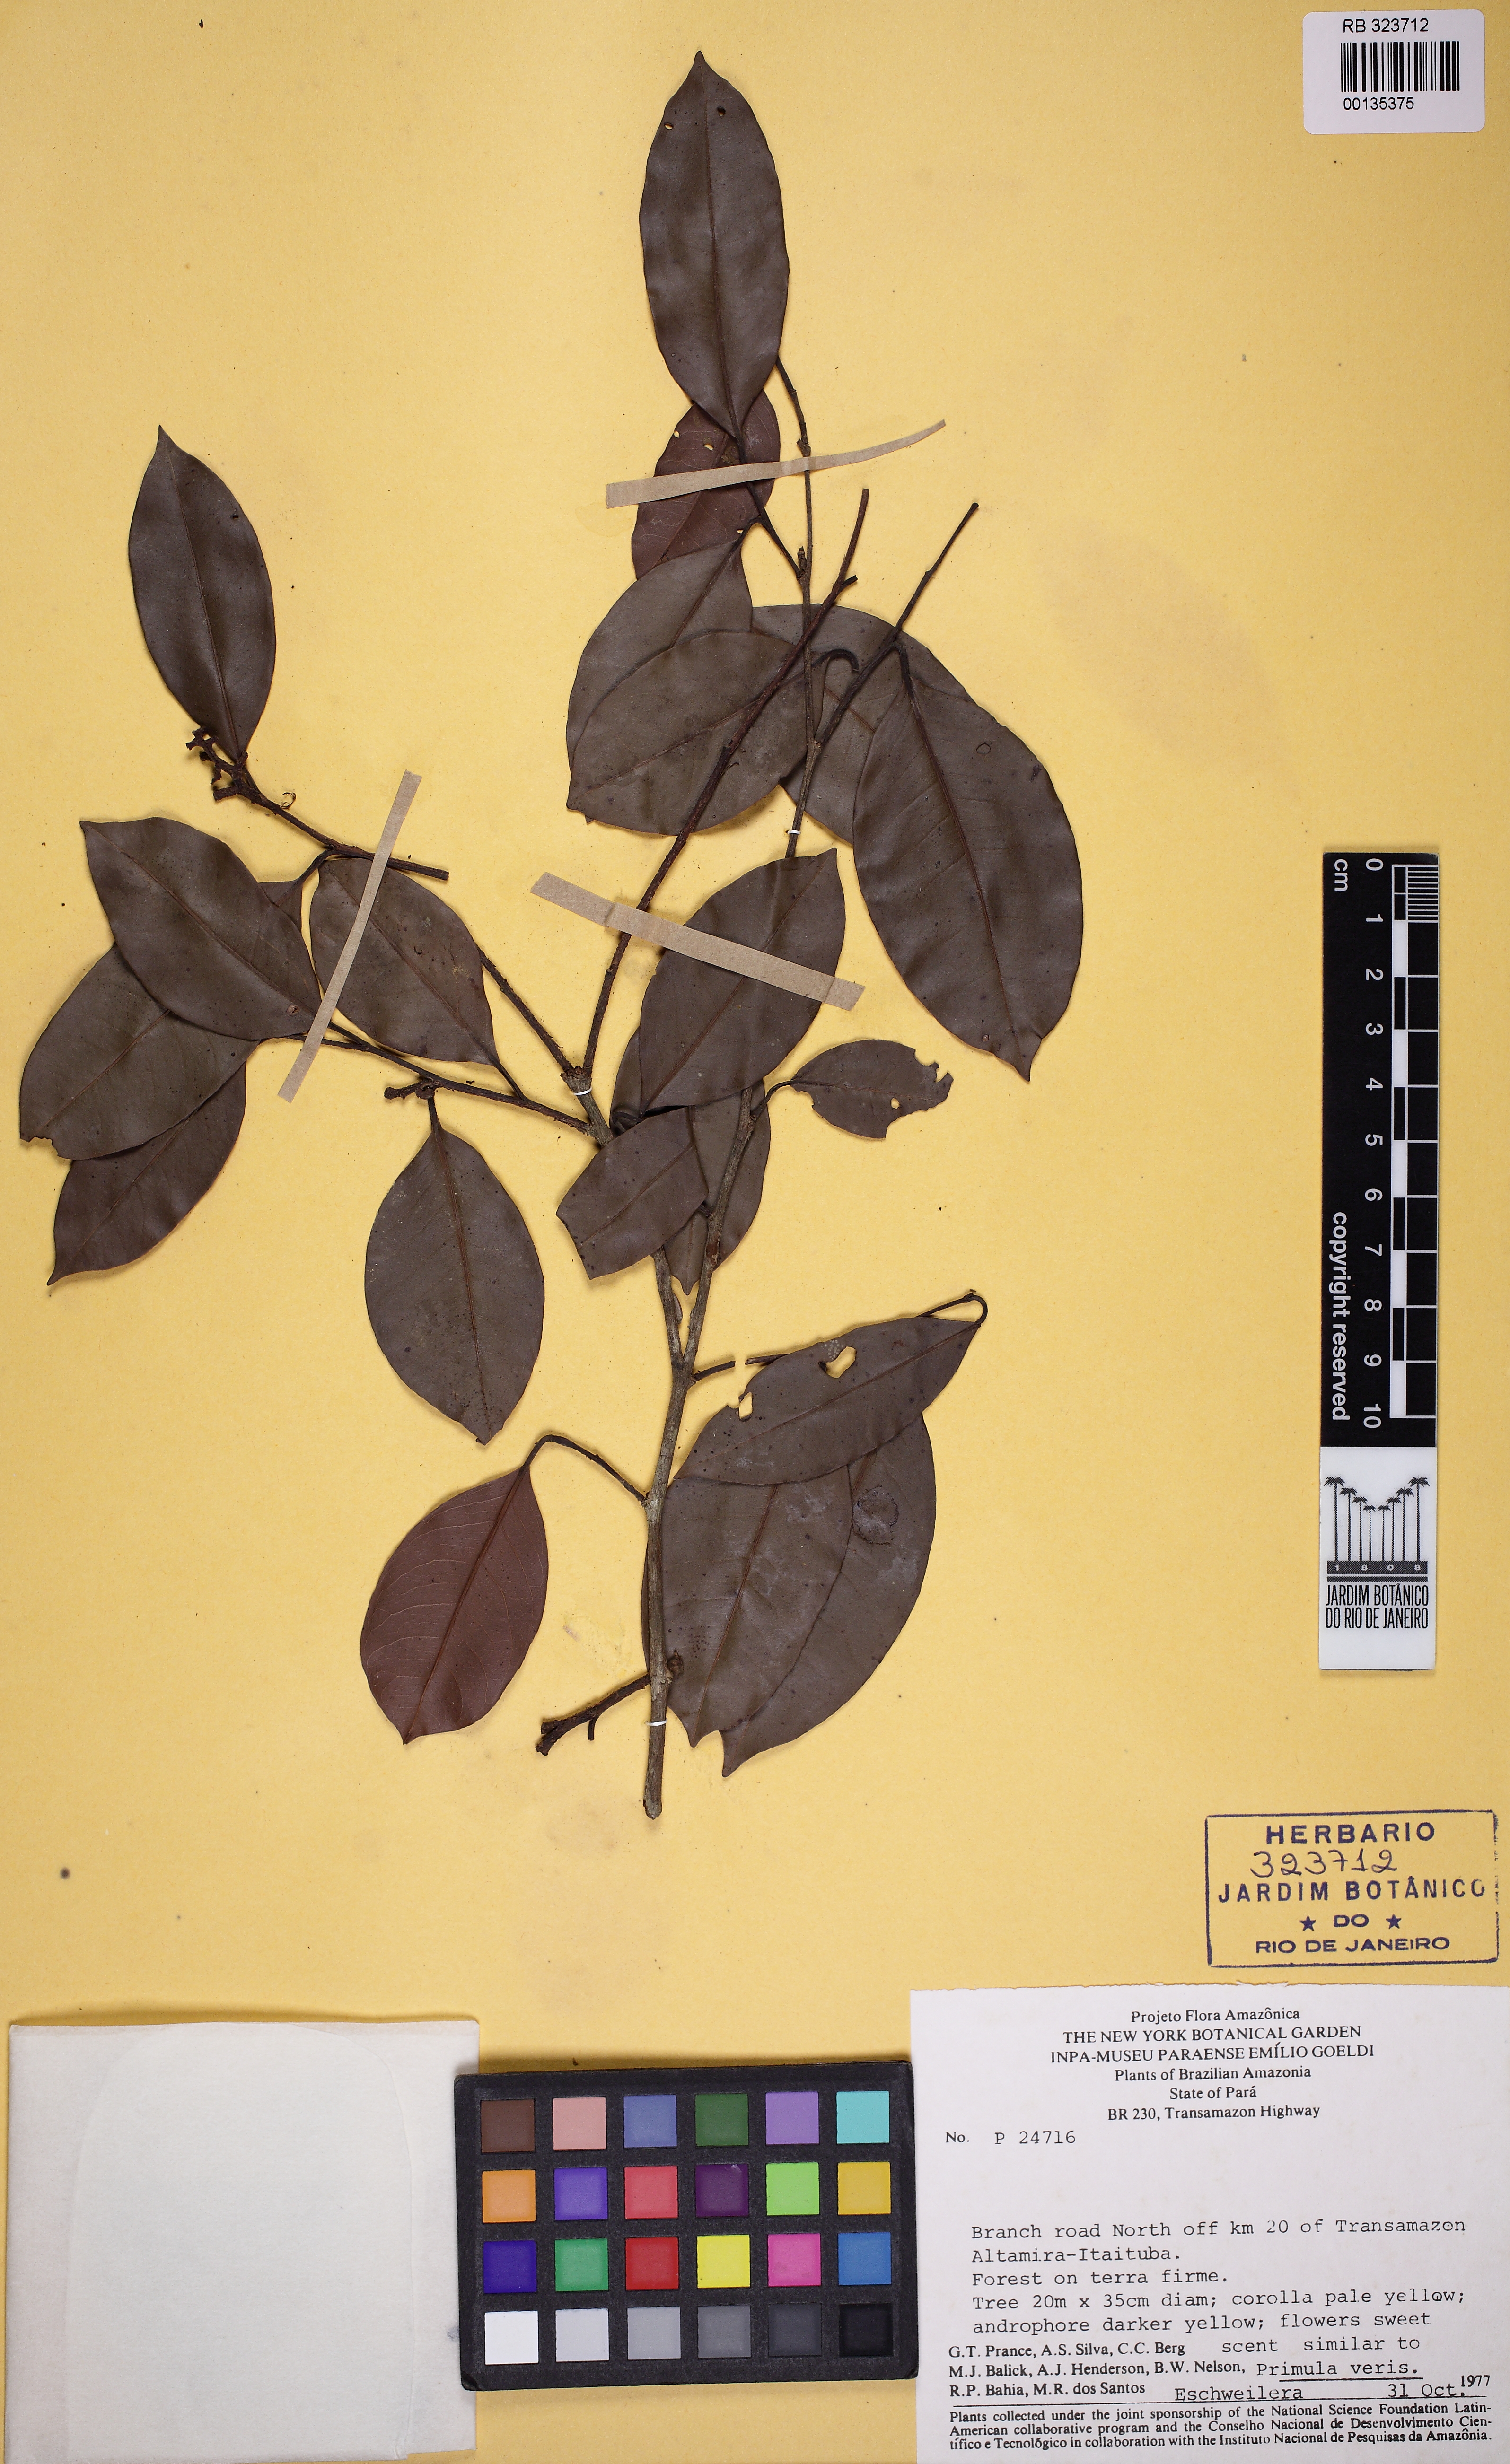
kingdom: Plantae
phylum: Tracheophyta
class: Magnoliopsida
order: Ericales
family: Lecythidaceae
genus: Eschweilera
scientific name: Eschweilera amazonica
